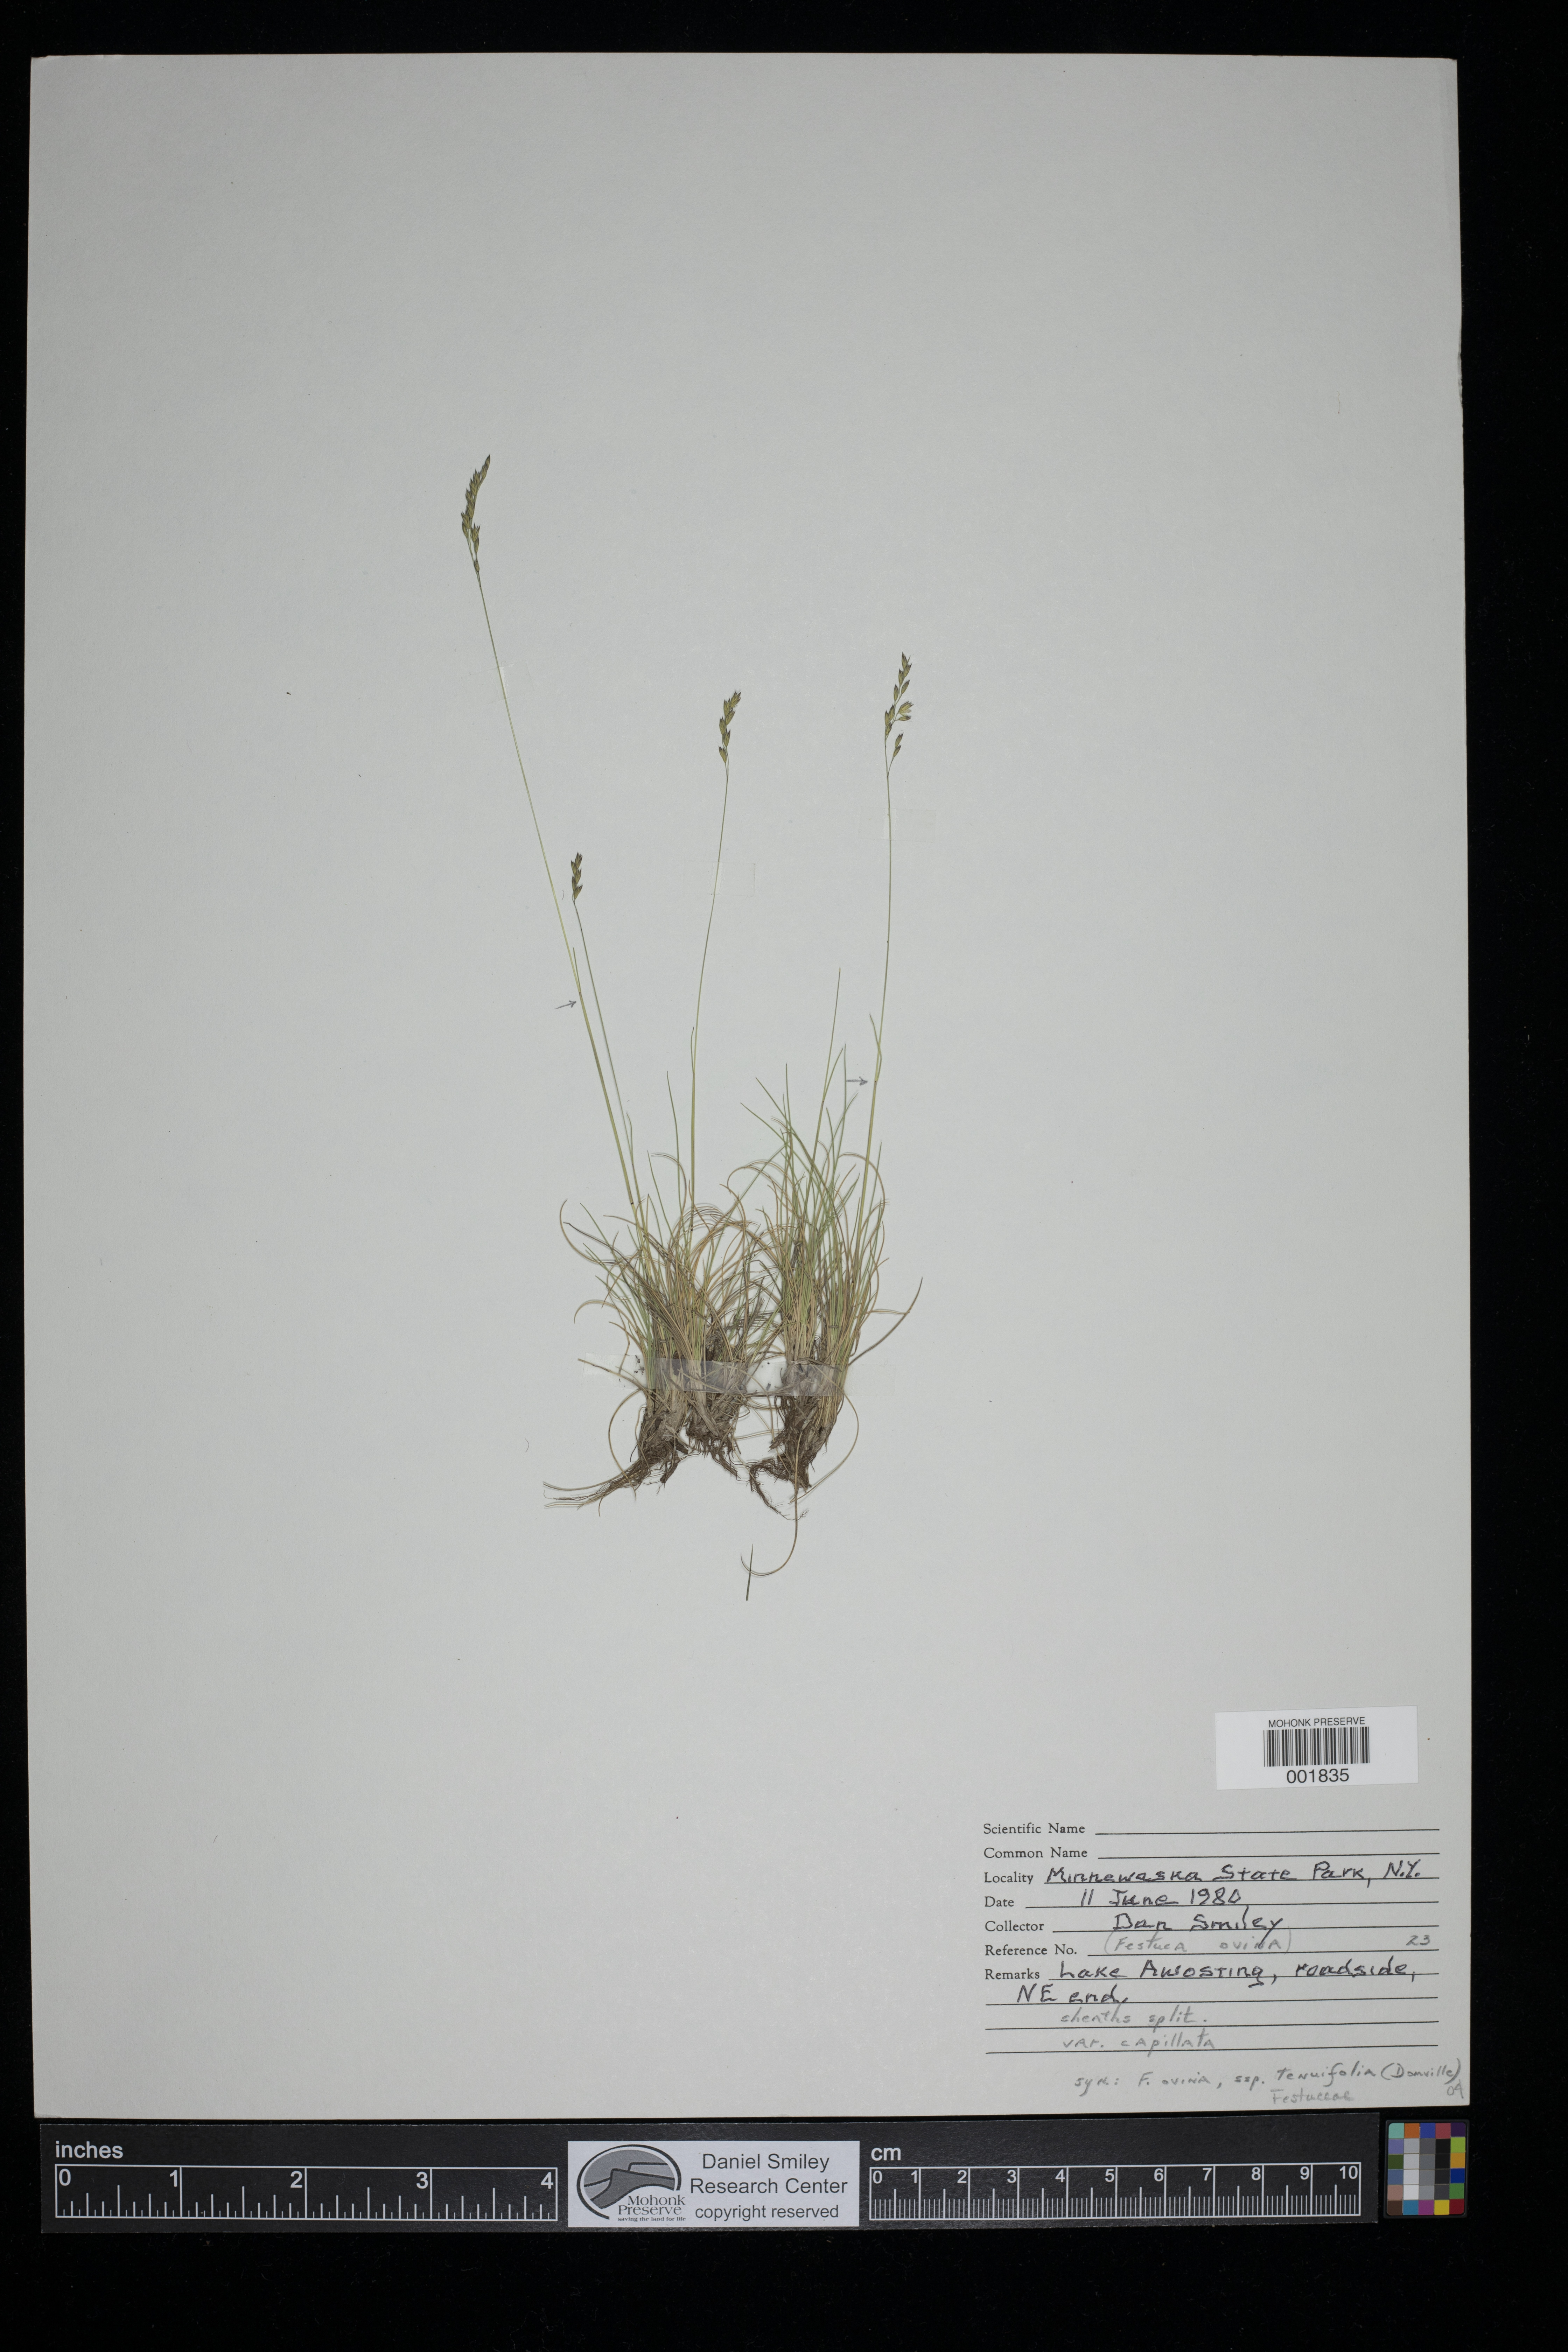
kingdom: Plantae
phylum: Tracheophyta
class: Liliopsida
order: Poales
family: Poaceae
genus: Festuca
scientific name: Festuca ovina
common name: Sheep fescue
